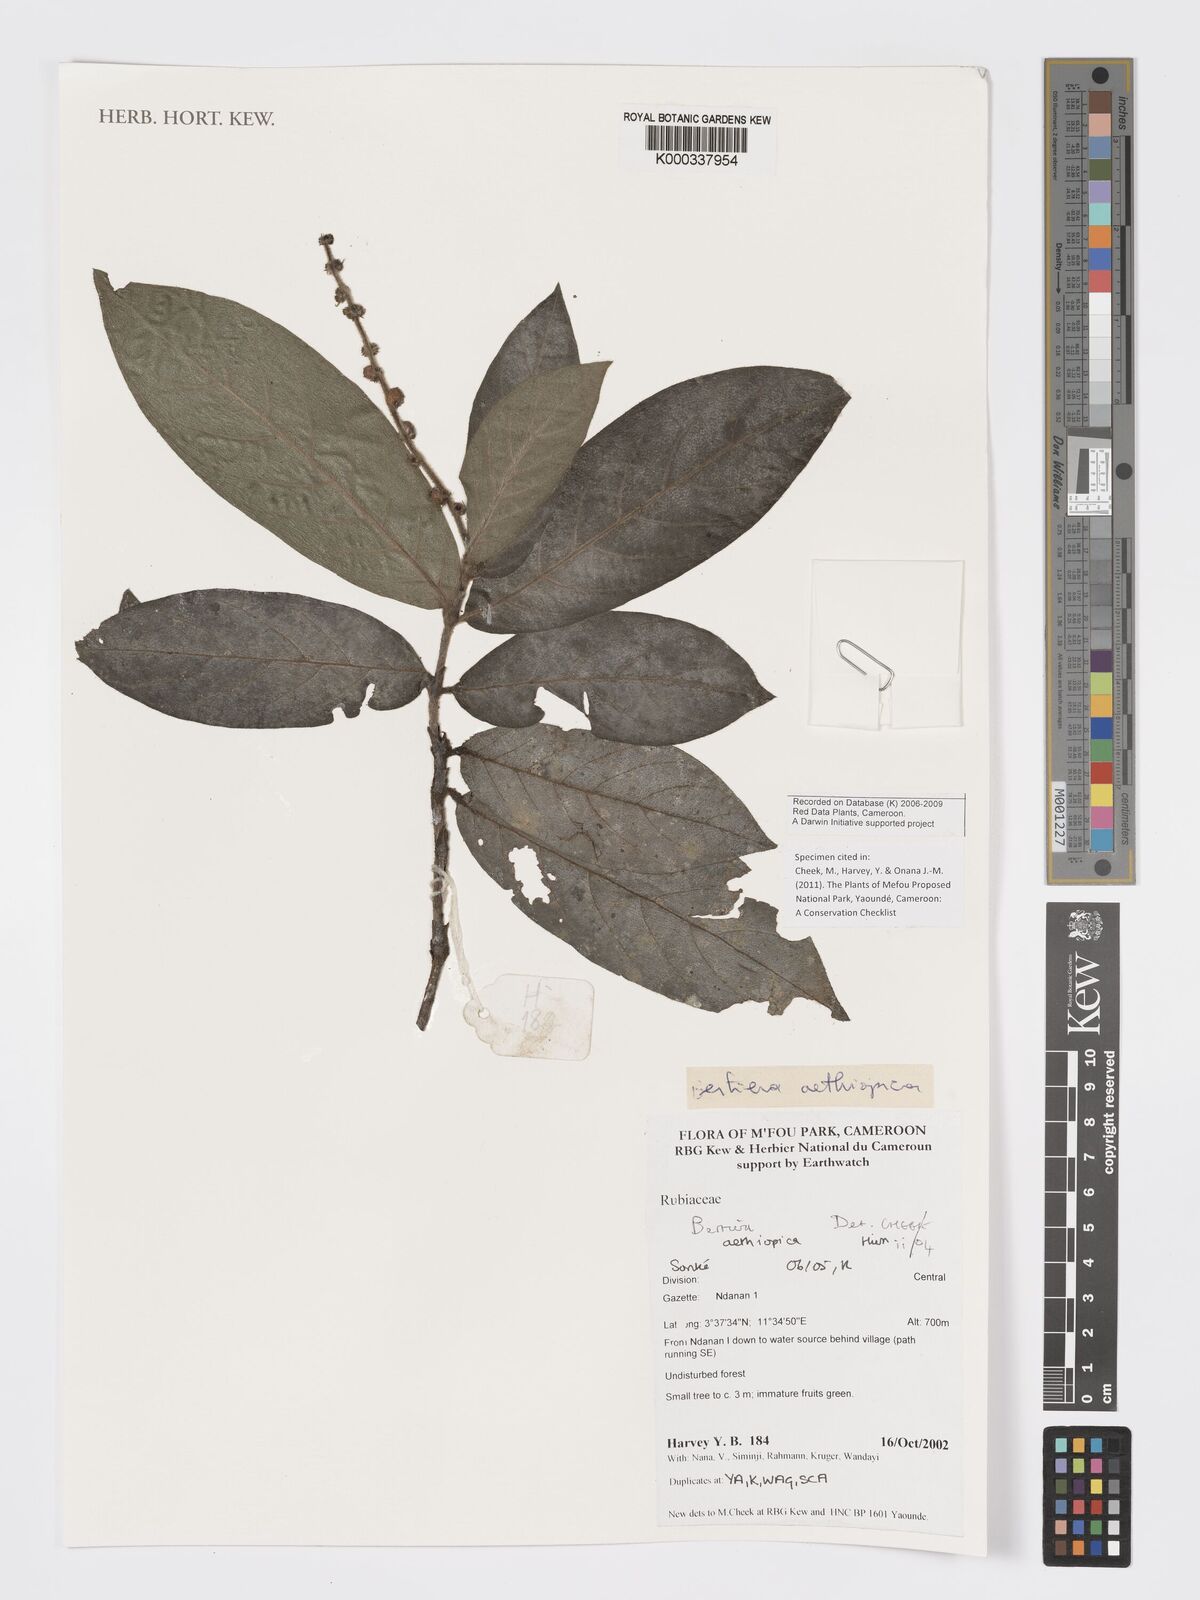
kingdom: Plantae
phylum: Tracheophyta
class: Magnoliopsida
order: Gentianales
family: Rubiaceae
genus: Bertiera
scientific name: Bertiera aethiopica
